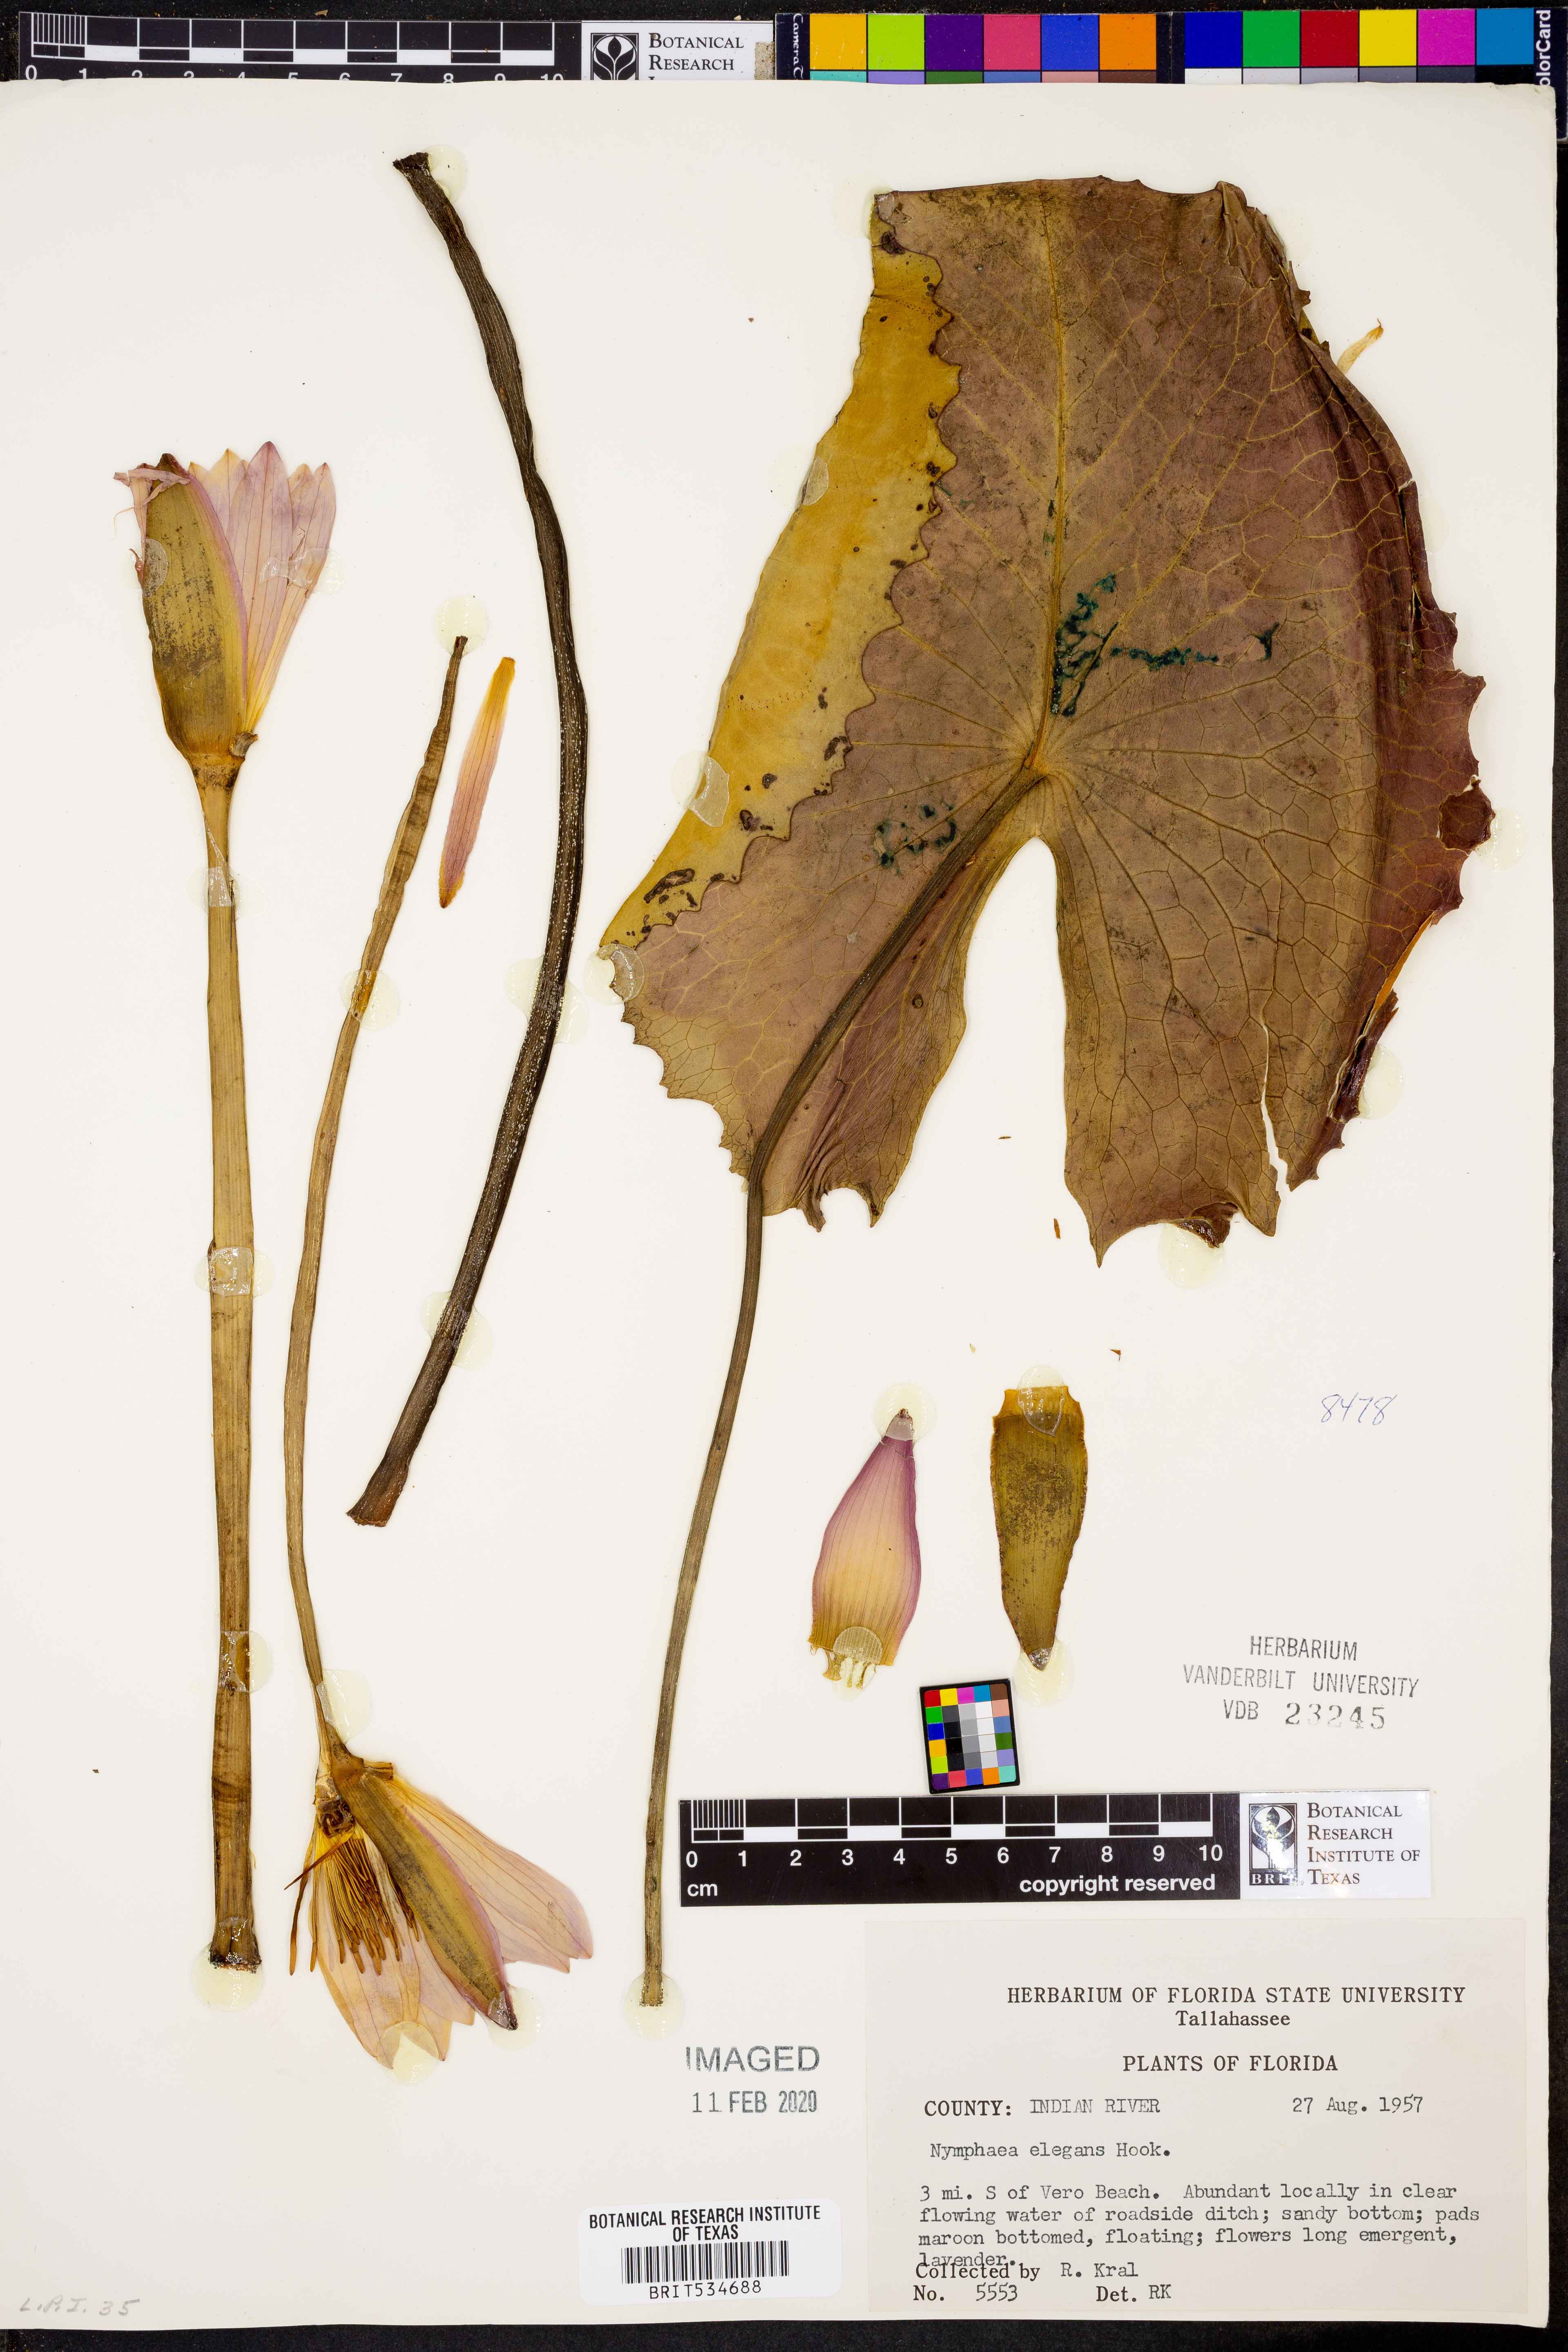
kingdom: Plantae
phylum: Tracheophyta
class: Magnoliopsida
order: Nymphaeales
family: Nymphaeaceae
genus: Nymphaea
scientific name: Nymphaea elegans
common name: Blue water-lily
